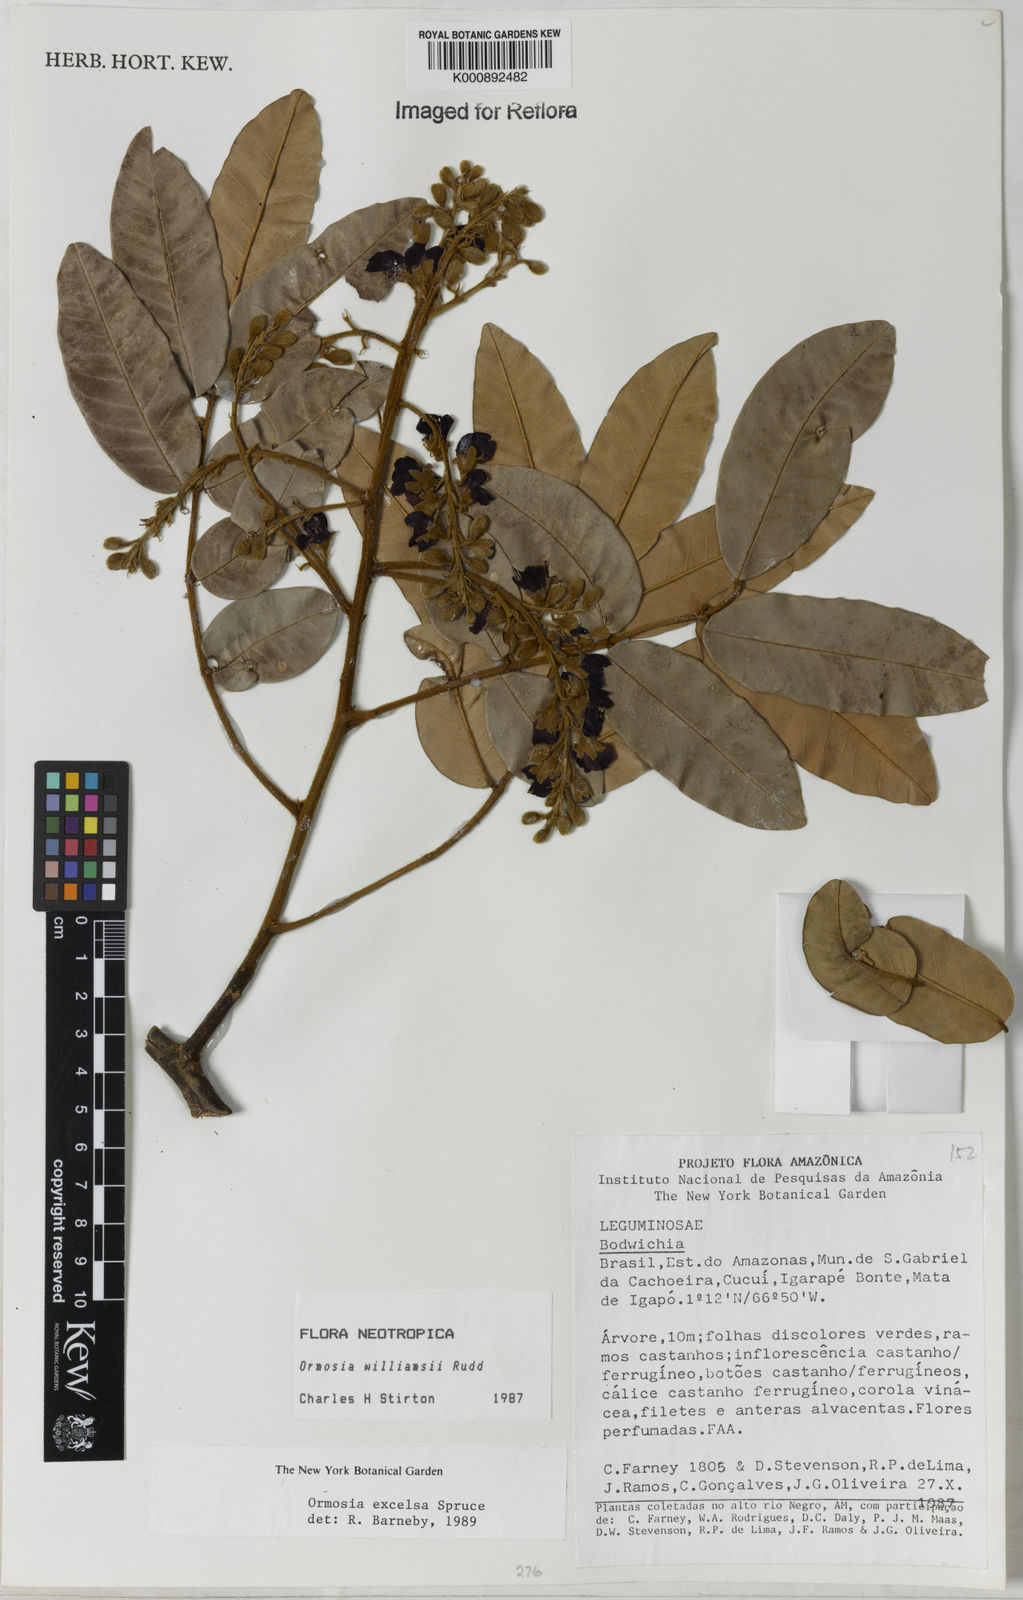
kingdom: Plantae
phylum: Tracheophyta
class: Magnoliopsida
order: Fabales
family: Fabaceae
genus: Ormosia
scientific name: Ormosia williamsii
